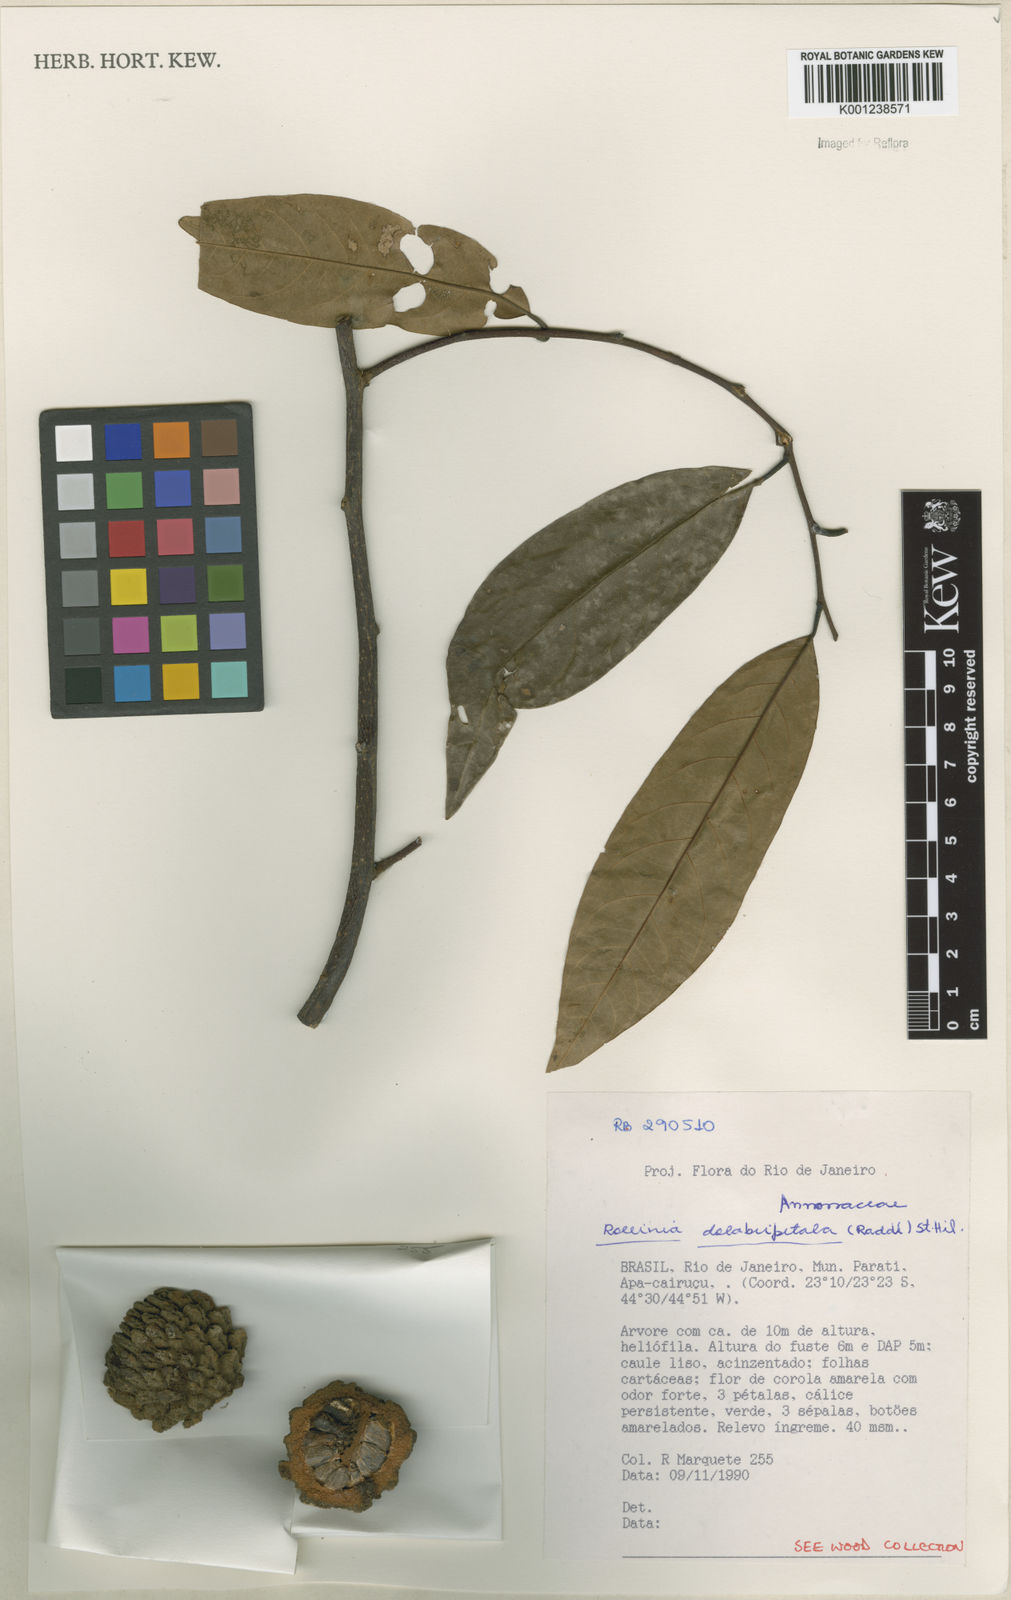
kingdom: Plantae
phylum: Tracheophyta
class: Magnoliopsida
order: Magnoliales
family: Annonaceae
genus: Annona
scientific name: Annona
